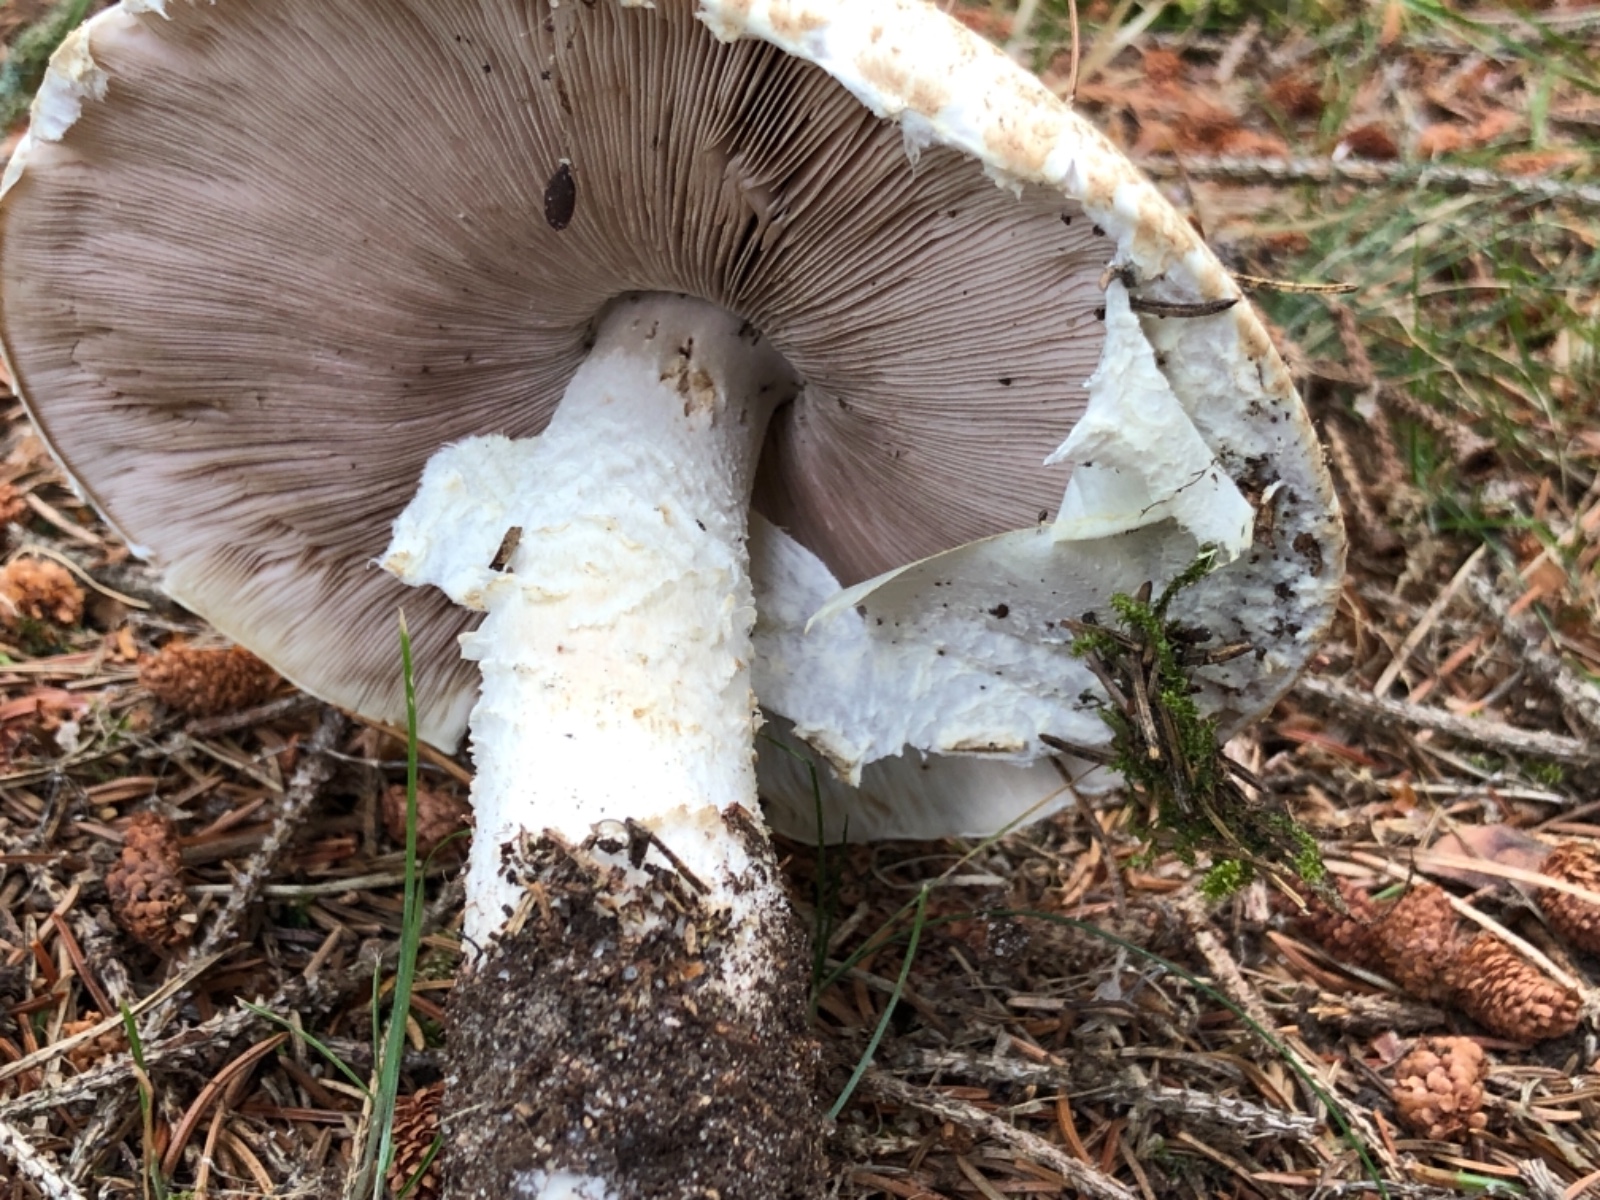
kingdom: Fungi
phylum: Basidiomycota
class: Agaricomycetes
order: Agaricales
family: Agaricaceae
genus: Agaricus
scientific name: Agaricus augustus
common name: prægtig champignon
